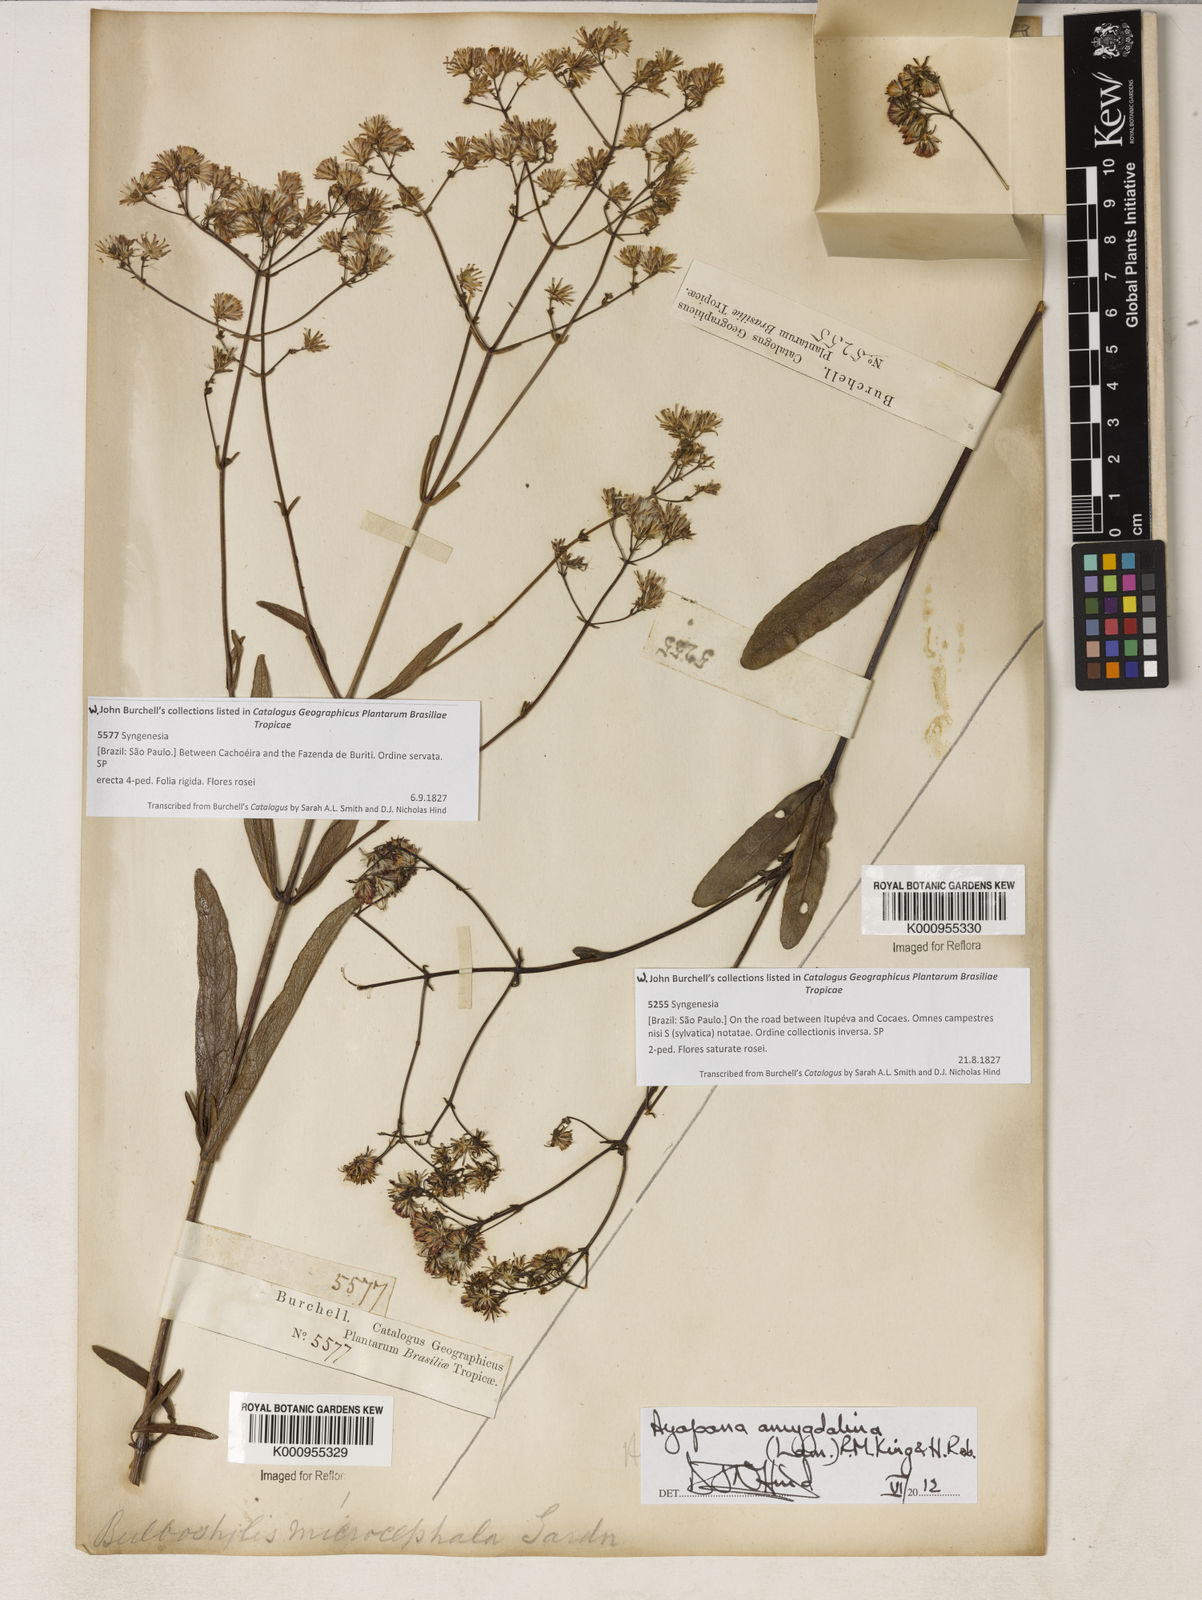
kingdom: Plantae
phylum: Tracheophyta
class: Magnoliopsida
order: Asterales
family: Asteraceae
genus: Ayapana
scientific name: Ayapana amygdalina
